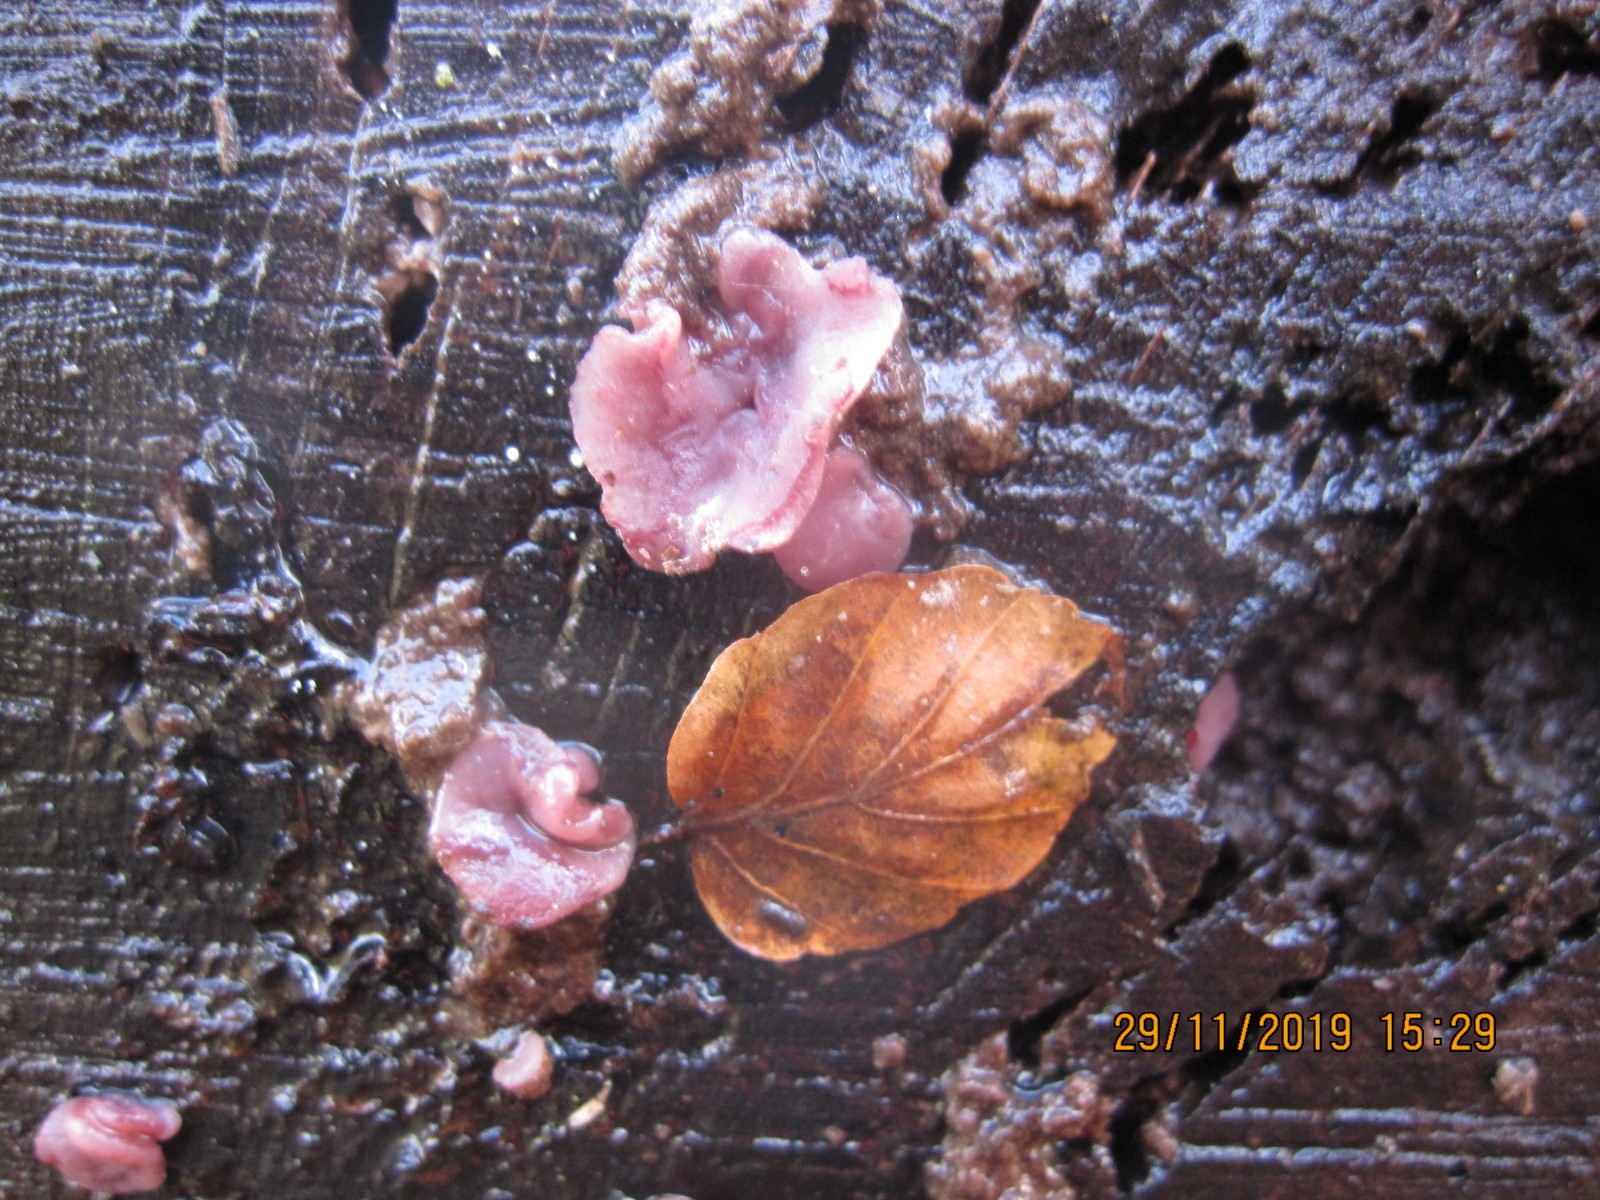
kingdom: Fungi
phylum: Ascomycota
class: Leotiomycetes
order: Helotiales
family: Gelatinodiscaceae
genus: Ascocoryne
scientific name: Ascocoryne cylichnium
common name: stor sejskive
